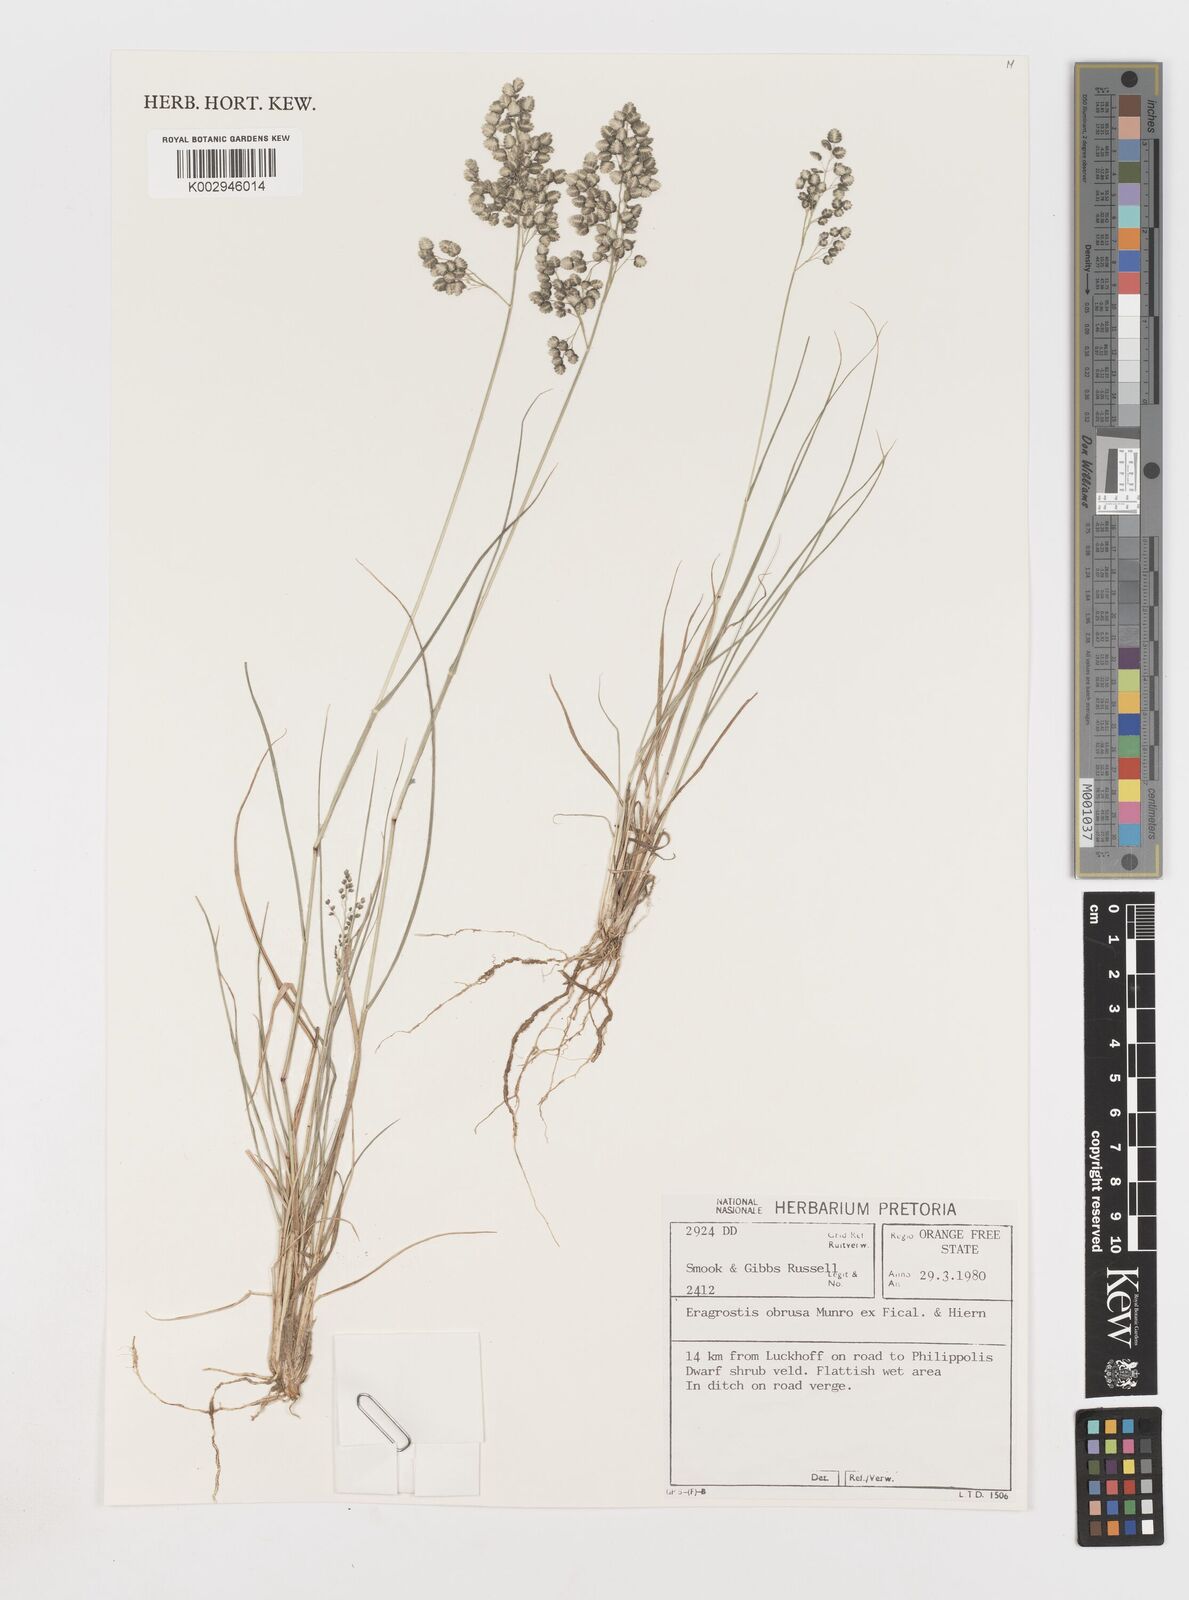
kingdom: Plantae
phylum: Tracheophyta
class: Liliopsida
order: Poales
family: Poaceae
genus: Eragrostis
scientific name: Eragrostis obtusa
